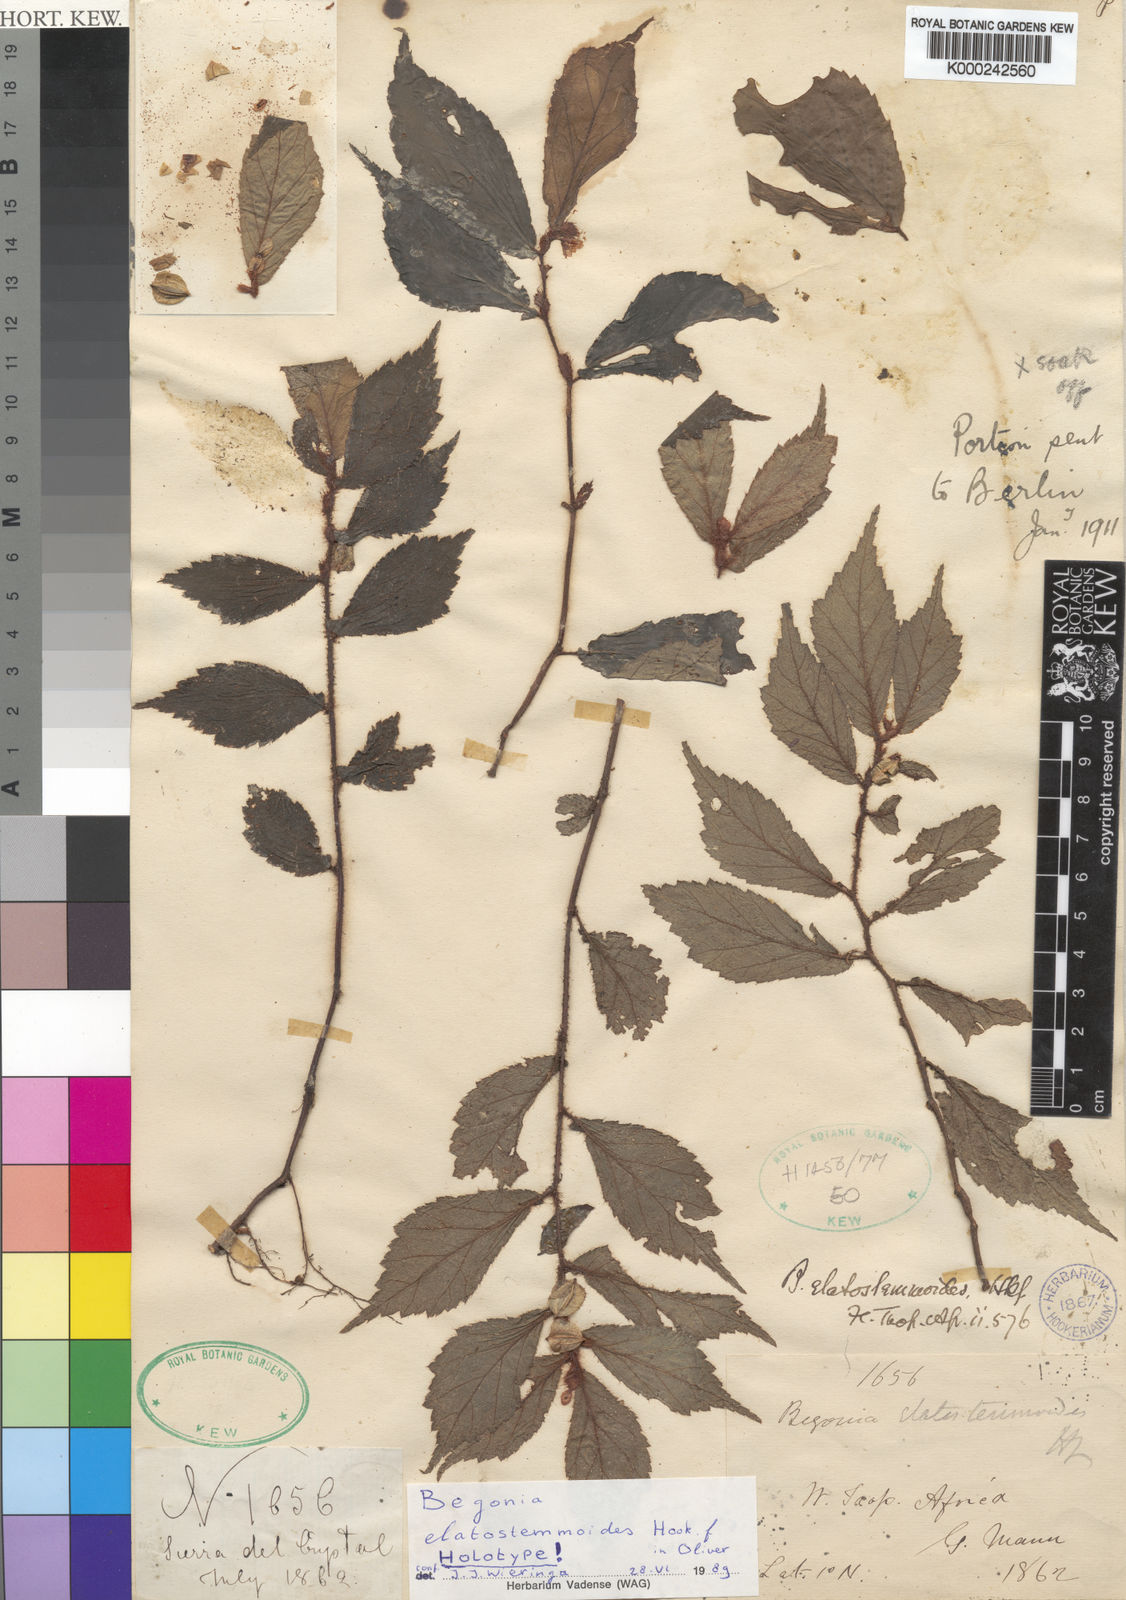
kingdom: Plantae
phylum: Tracheophyta
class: Magnoliopsida
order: Cucurbitales
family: Begoniaceae
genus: Begonia
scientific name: Begonia elatostemmoides
